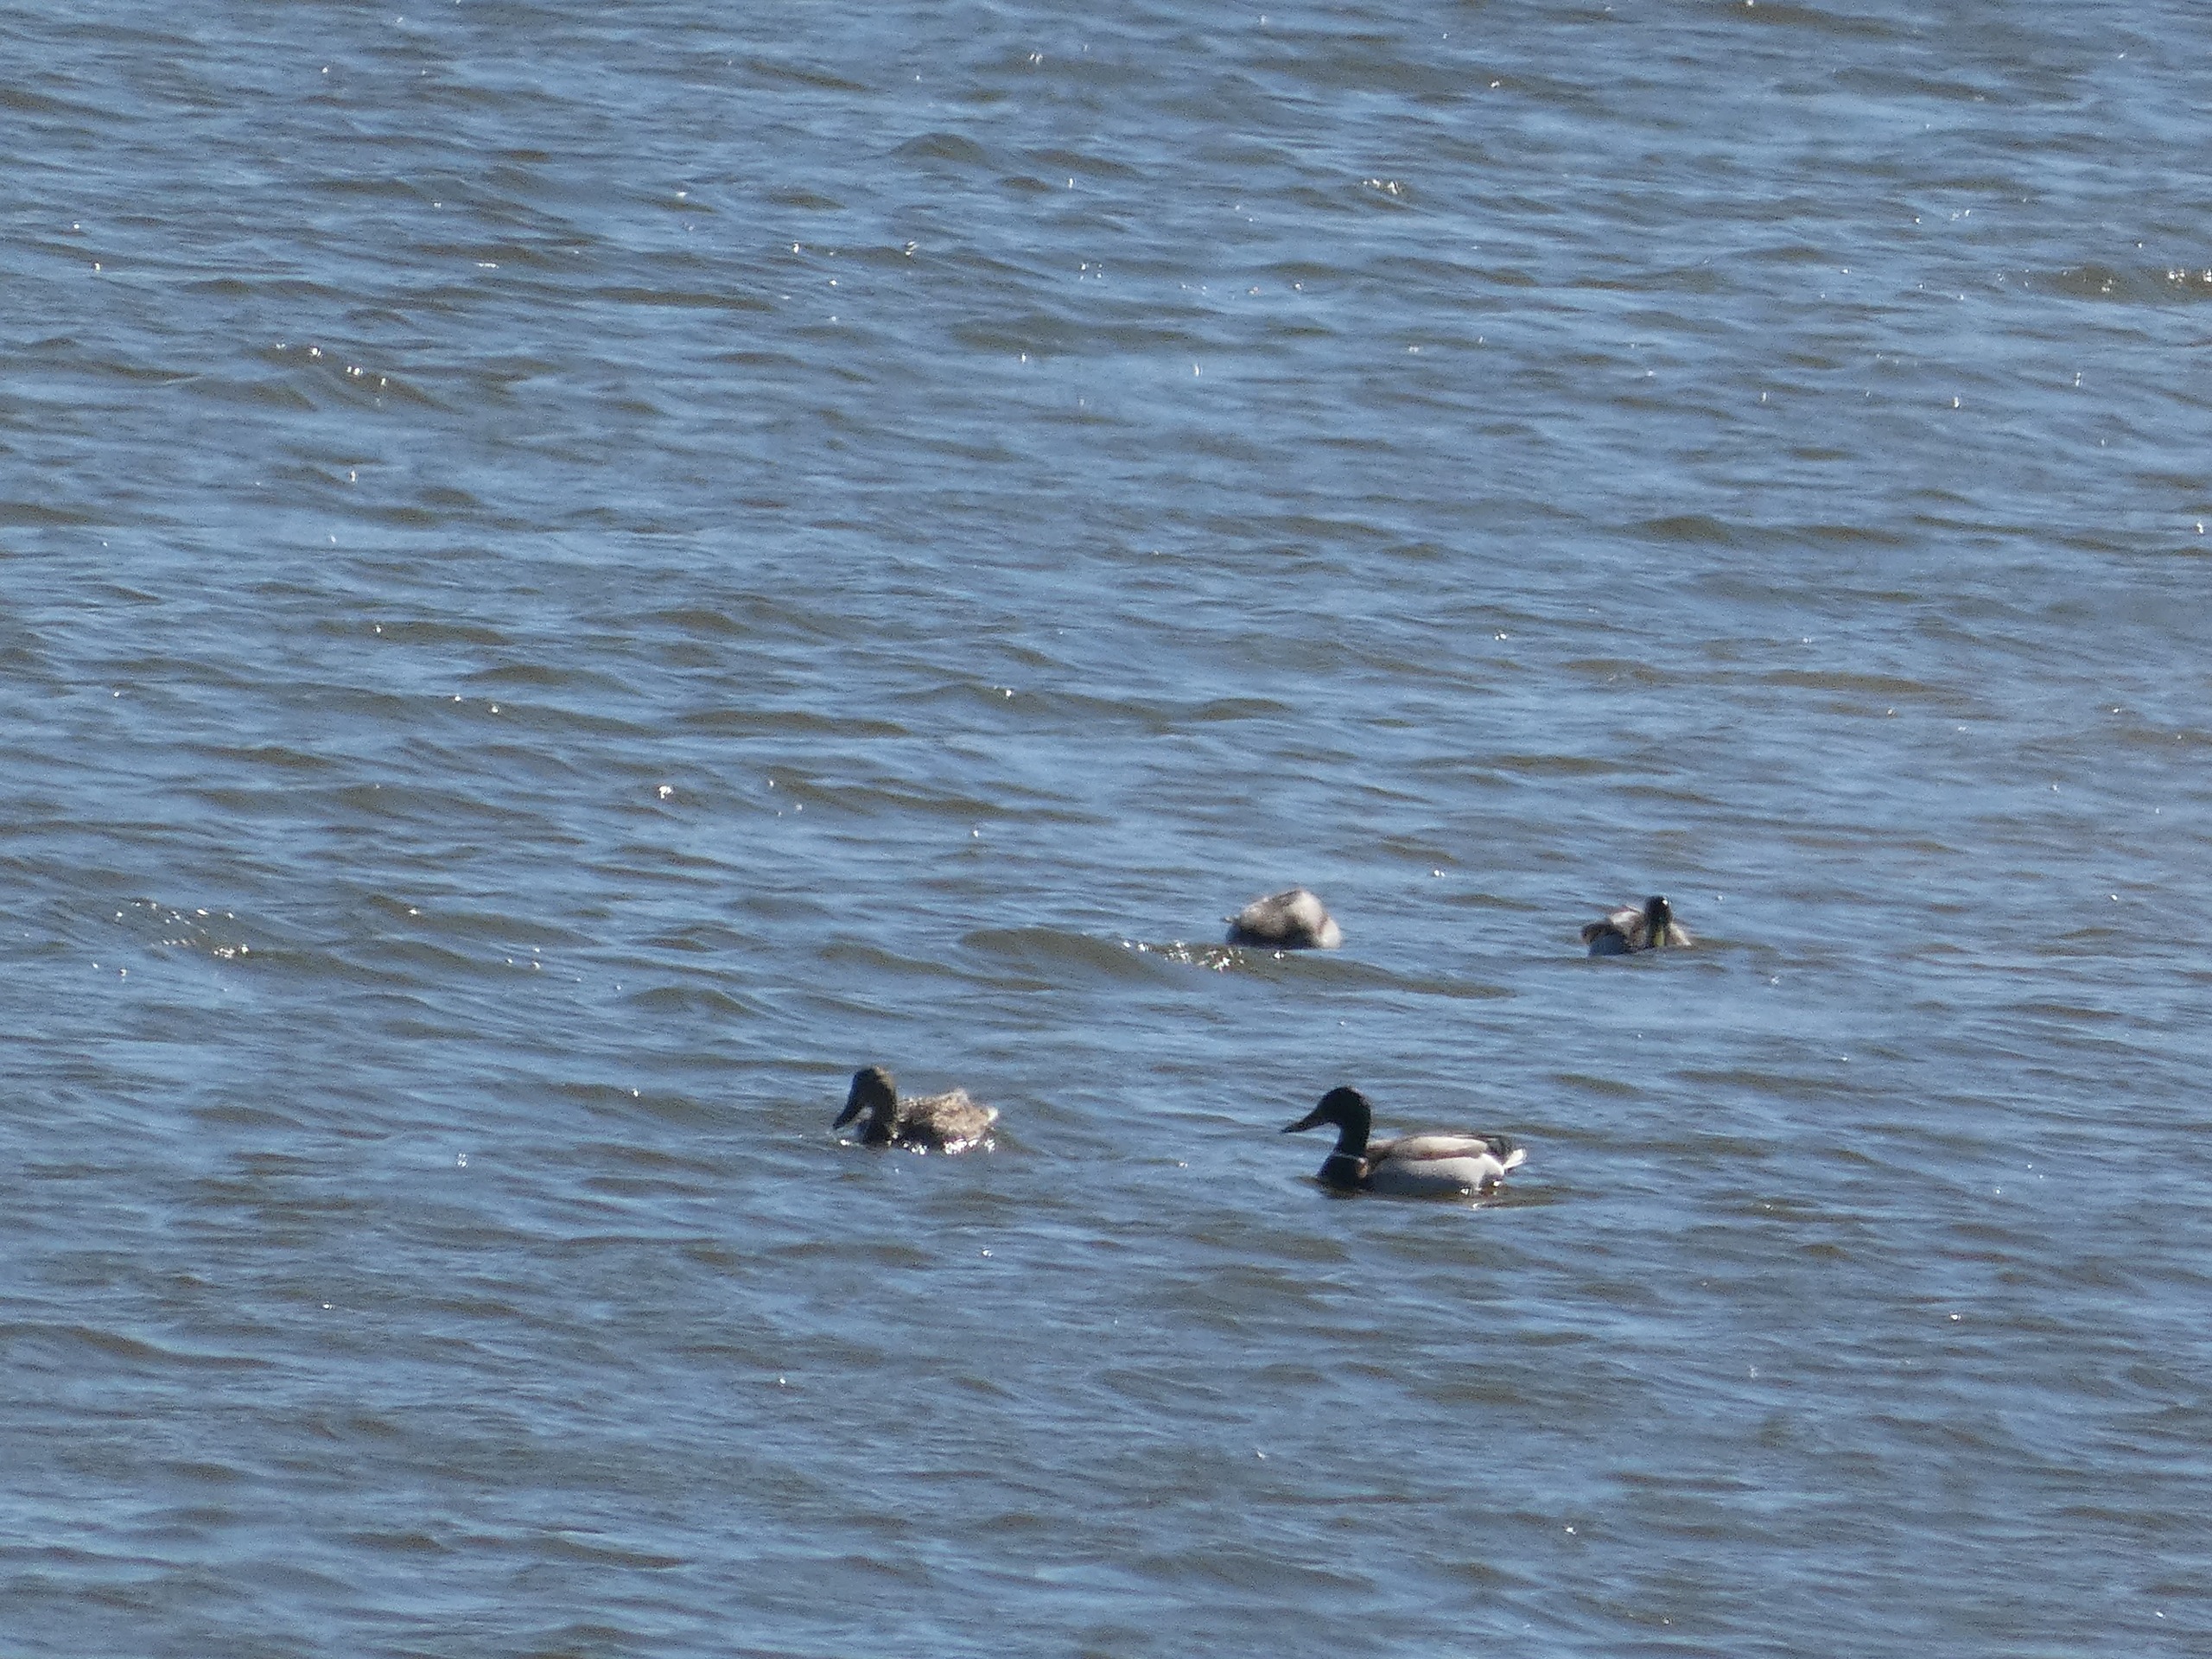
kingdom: Animalia
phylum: Chordata
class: Aves
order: Anseriformes
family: Anatidae
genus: Anas
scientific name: Anas platyrhynchos
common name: Gråand
